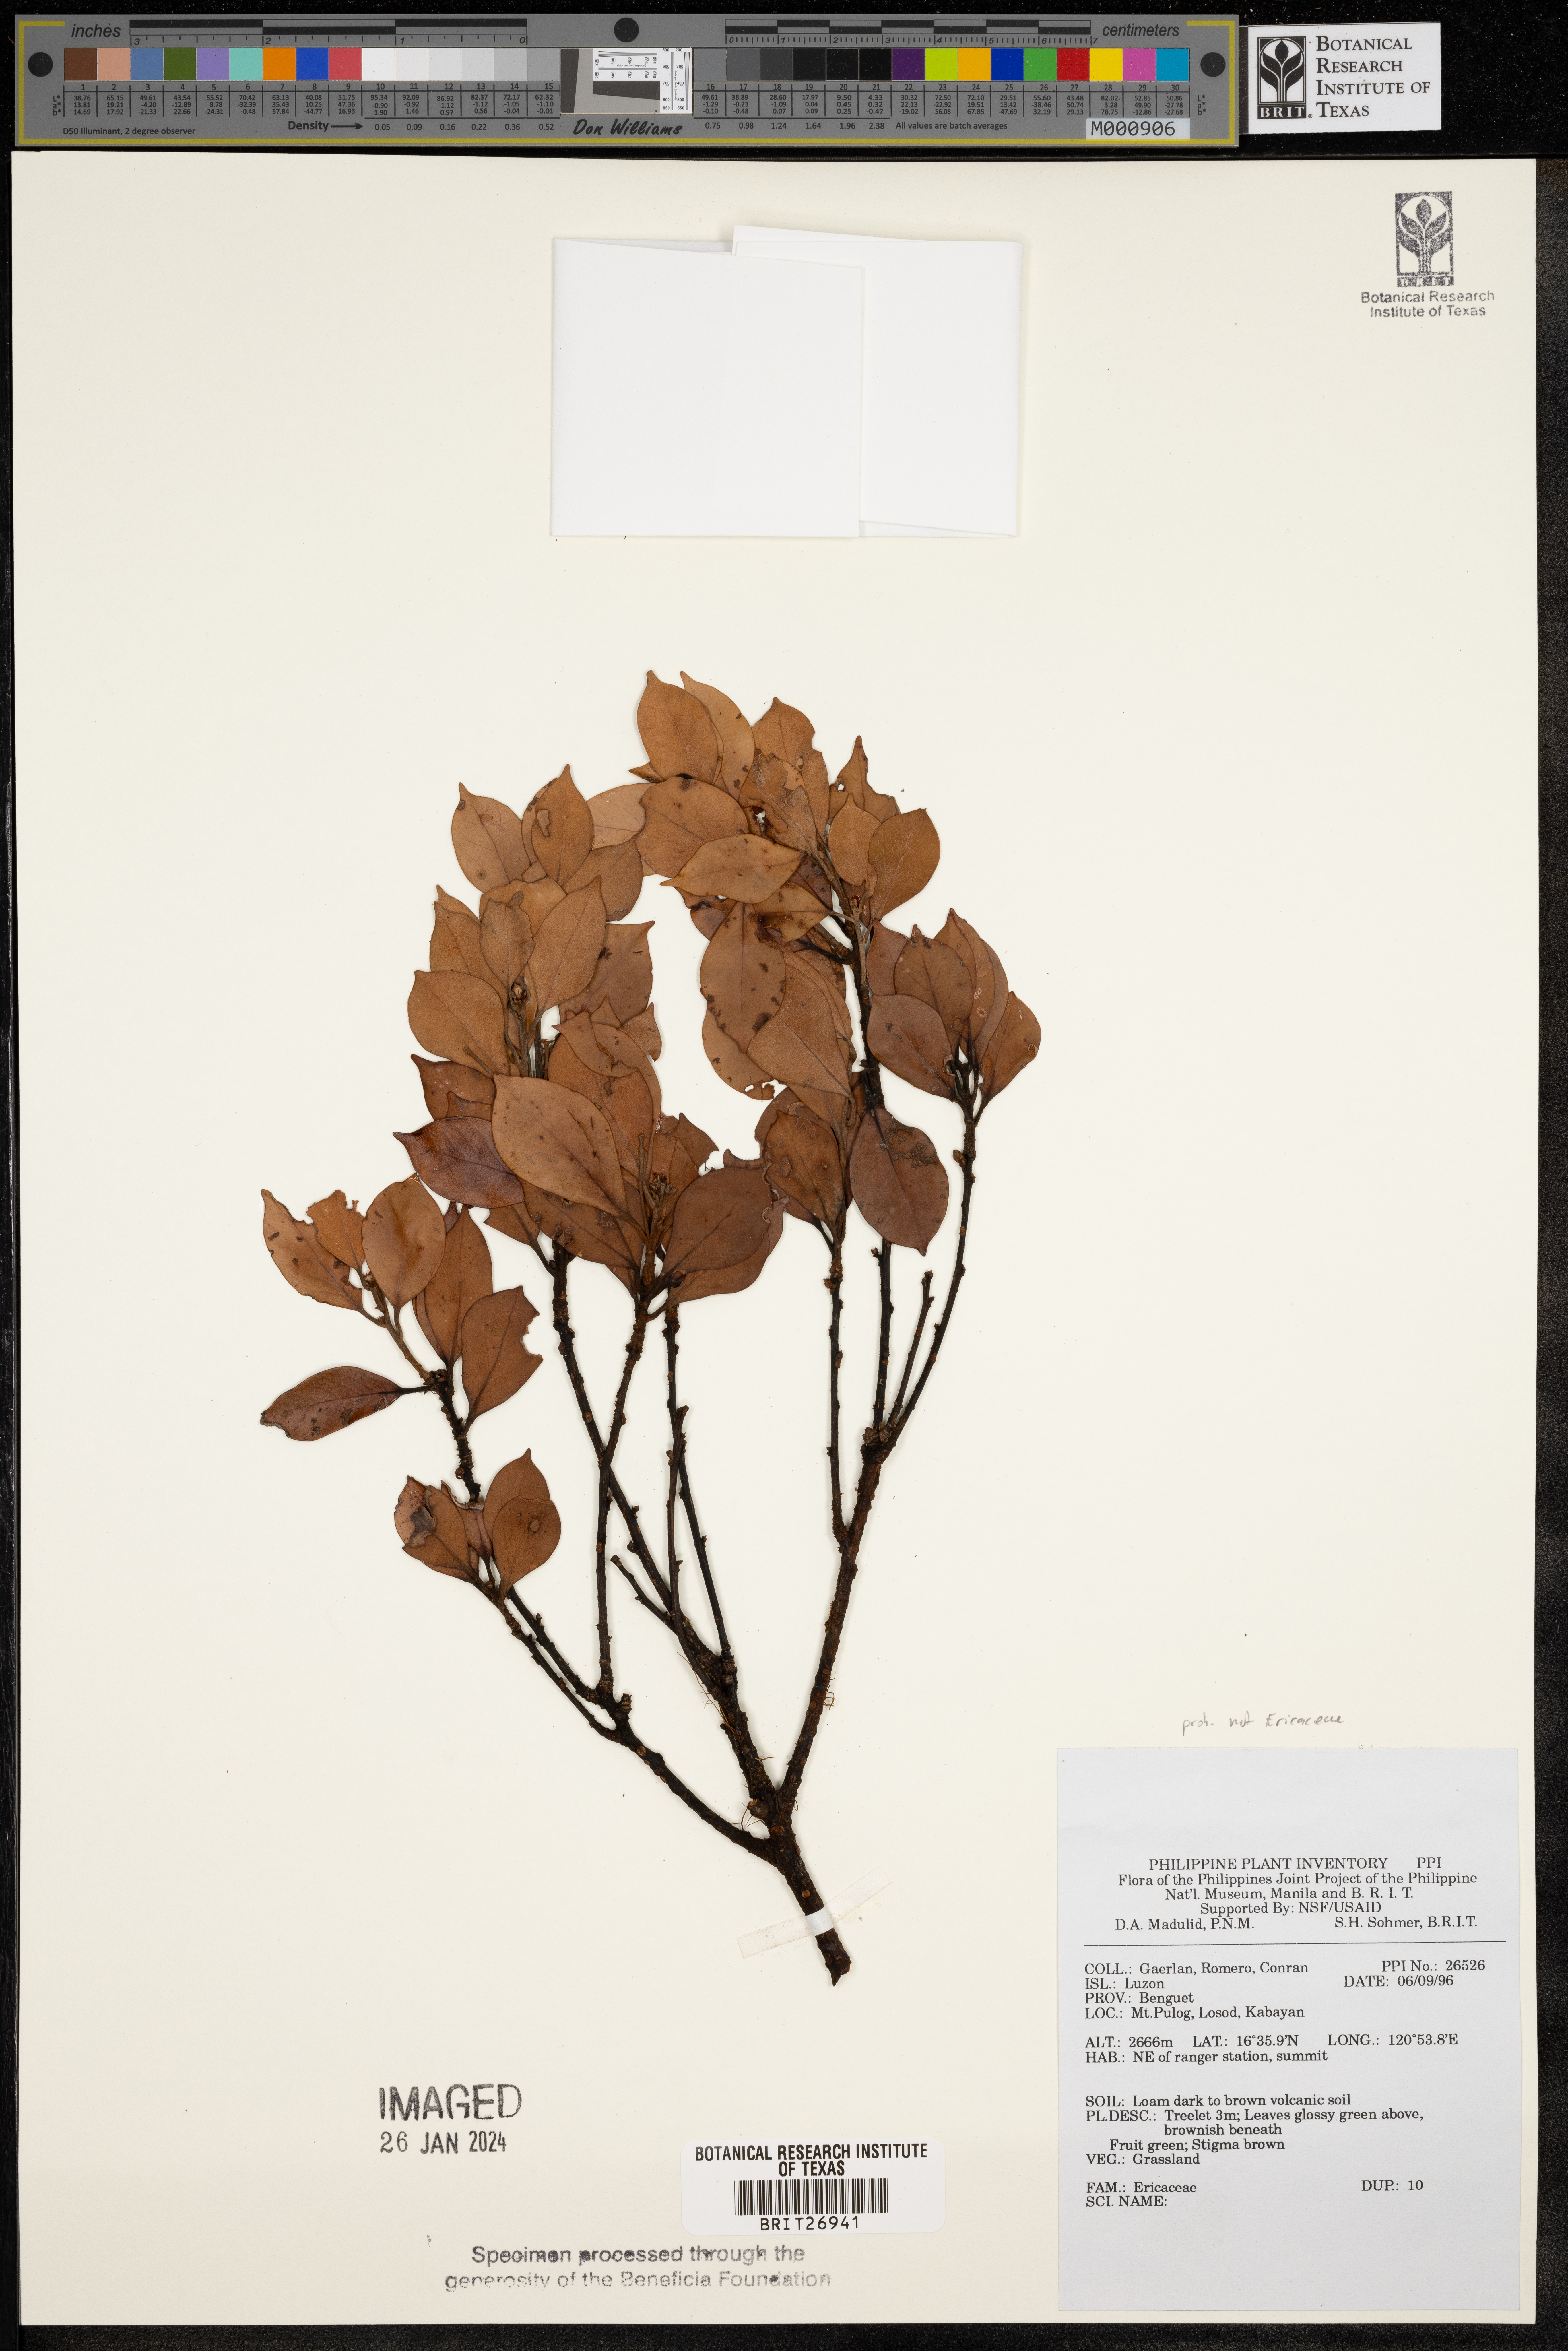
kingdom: Plantae
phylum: Tracheophyta
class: Magnoliopsida
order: Ericales
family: Ericaceae
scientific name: Ericaceae
